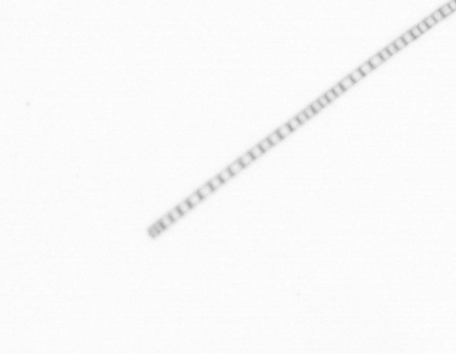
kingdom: Chromista
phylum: Ochrophyta
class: Bacillariophyceae
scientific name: Bacillariophyceae
